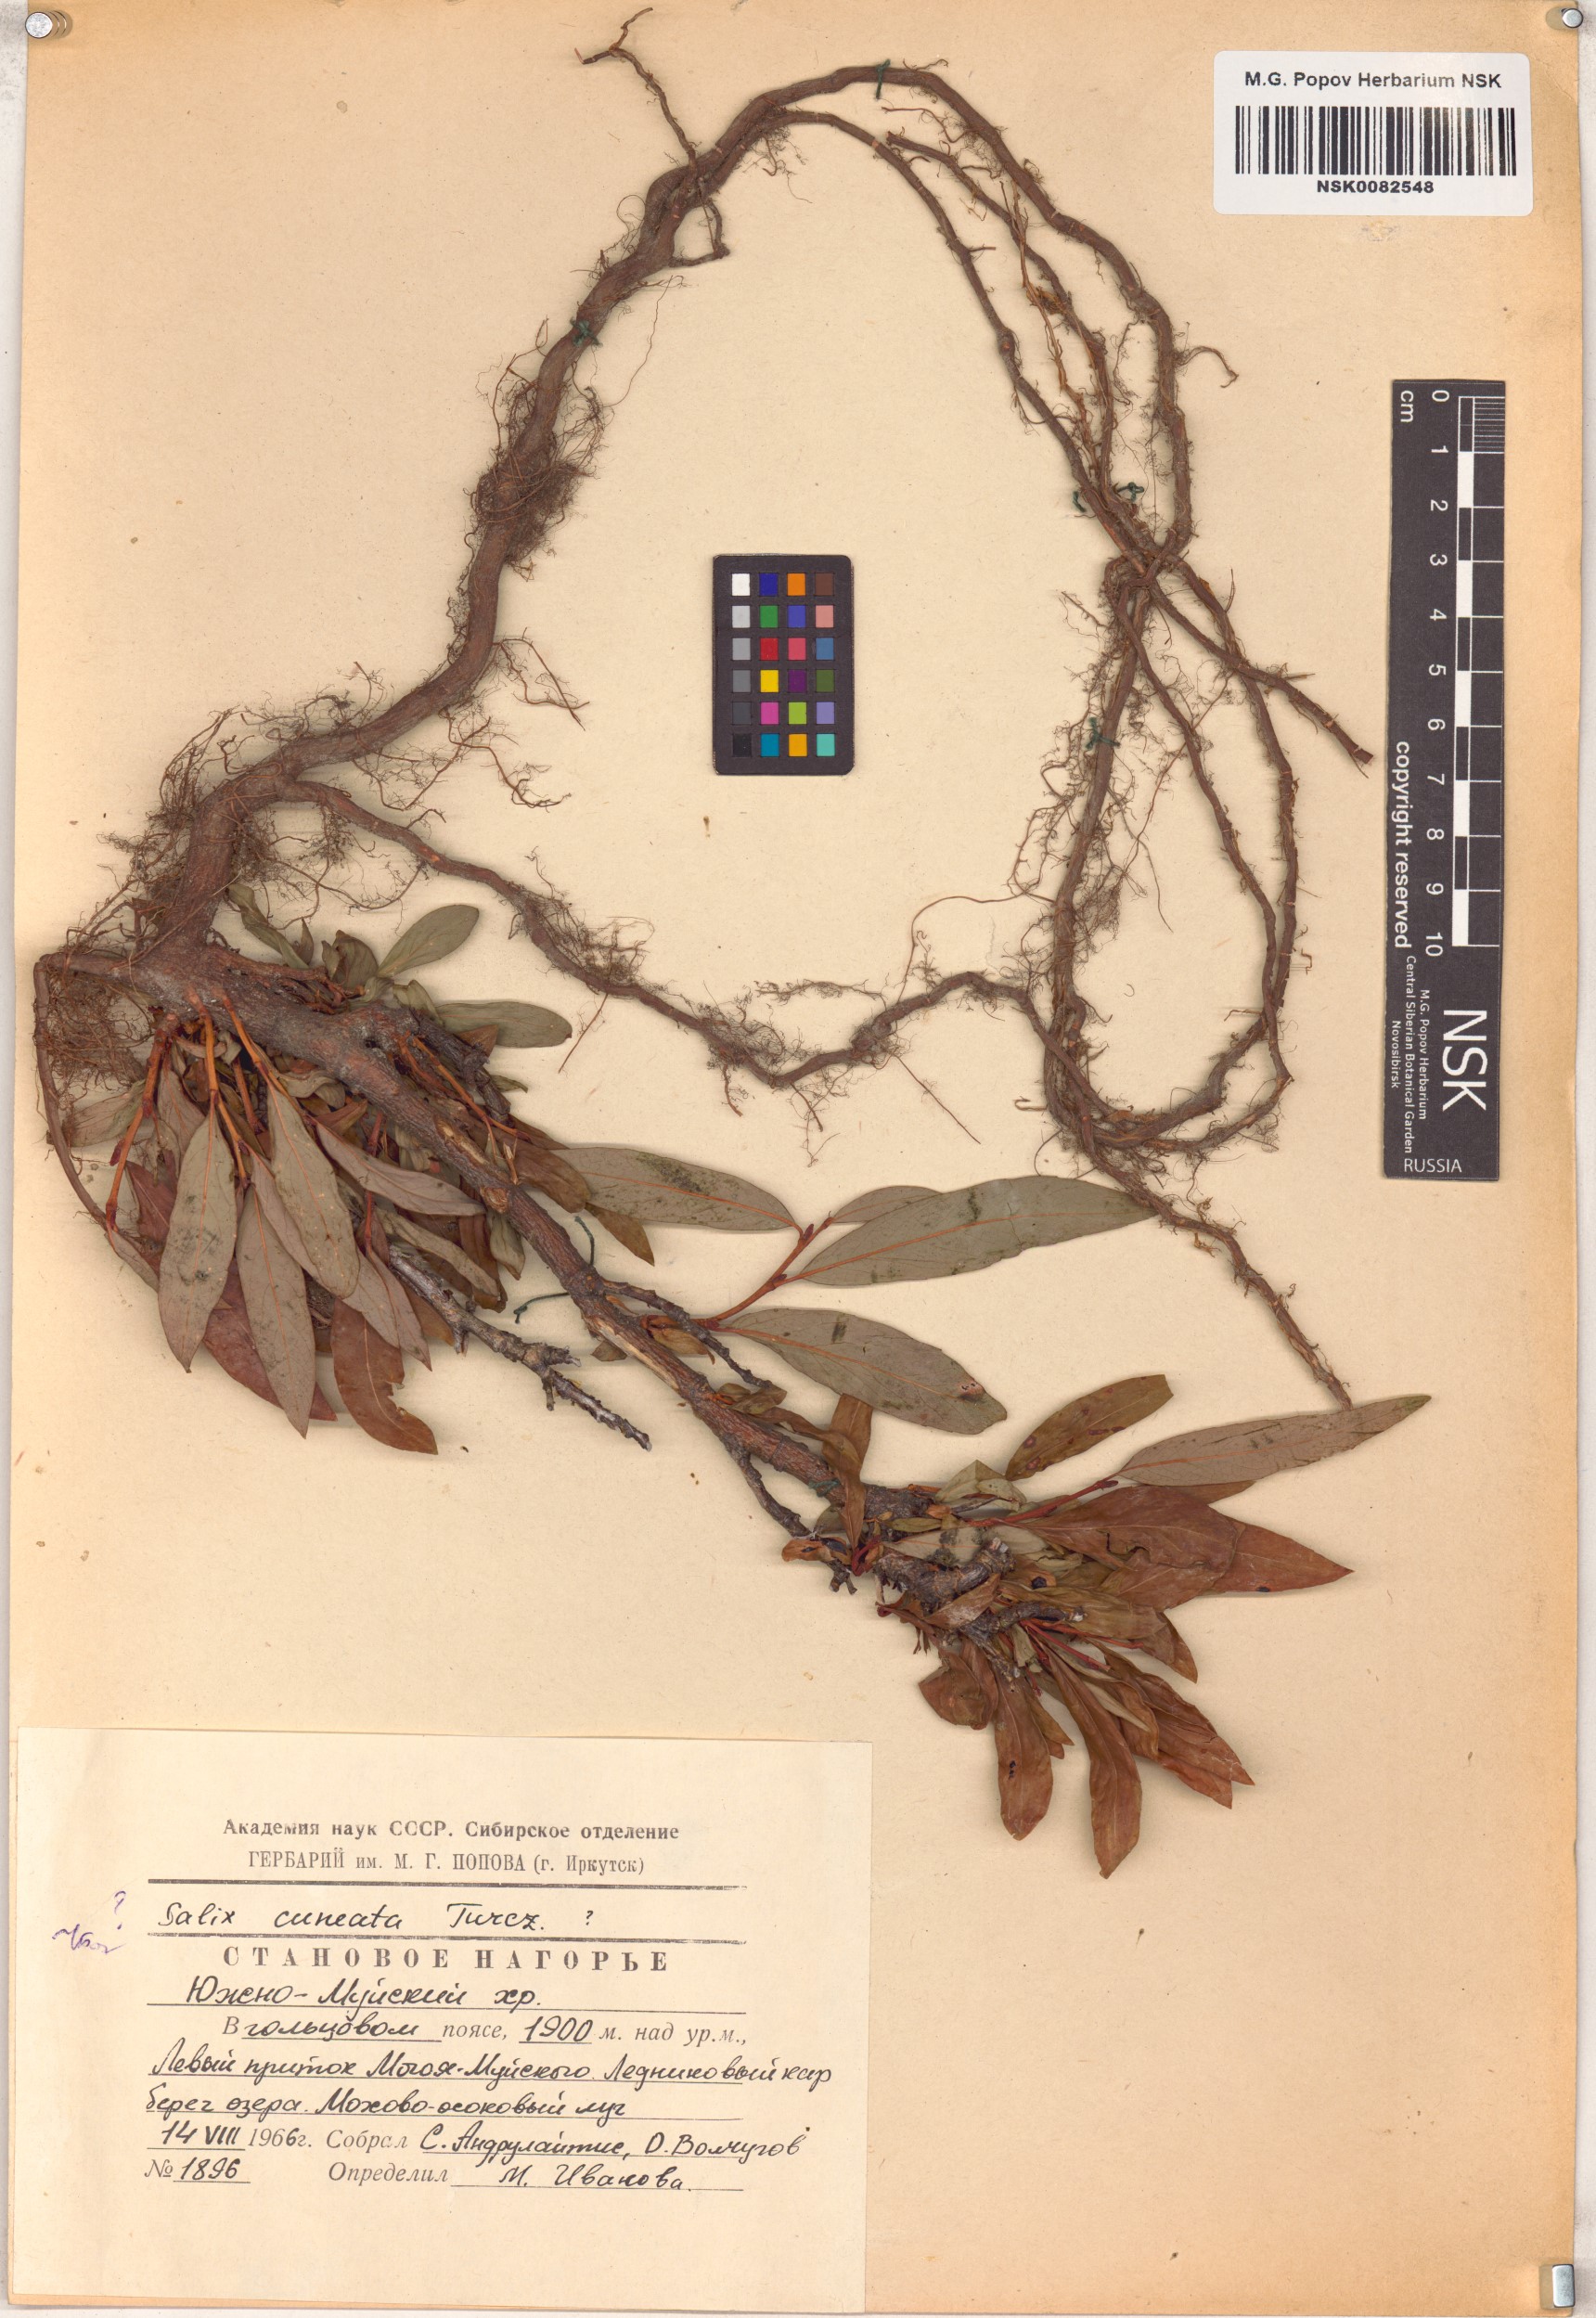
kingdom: Plantae
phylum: Tracheophyta
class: Magnoliopsida
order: Malpighiales
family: Salicaceae
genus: Salix
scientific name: Salix sphenophylla
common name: Wedge-leaved willow
